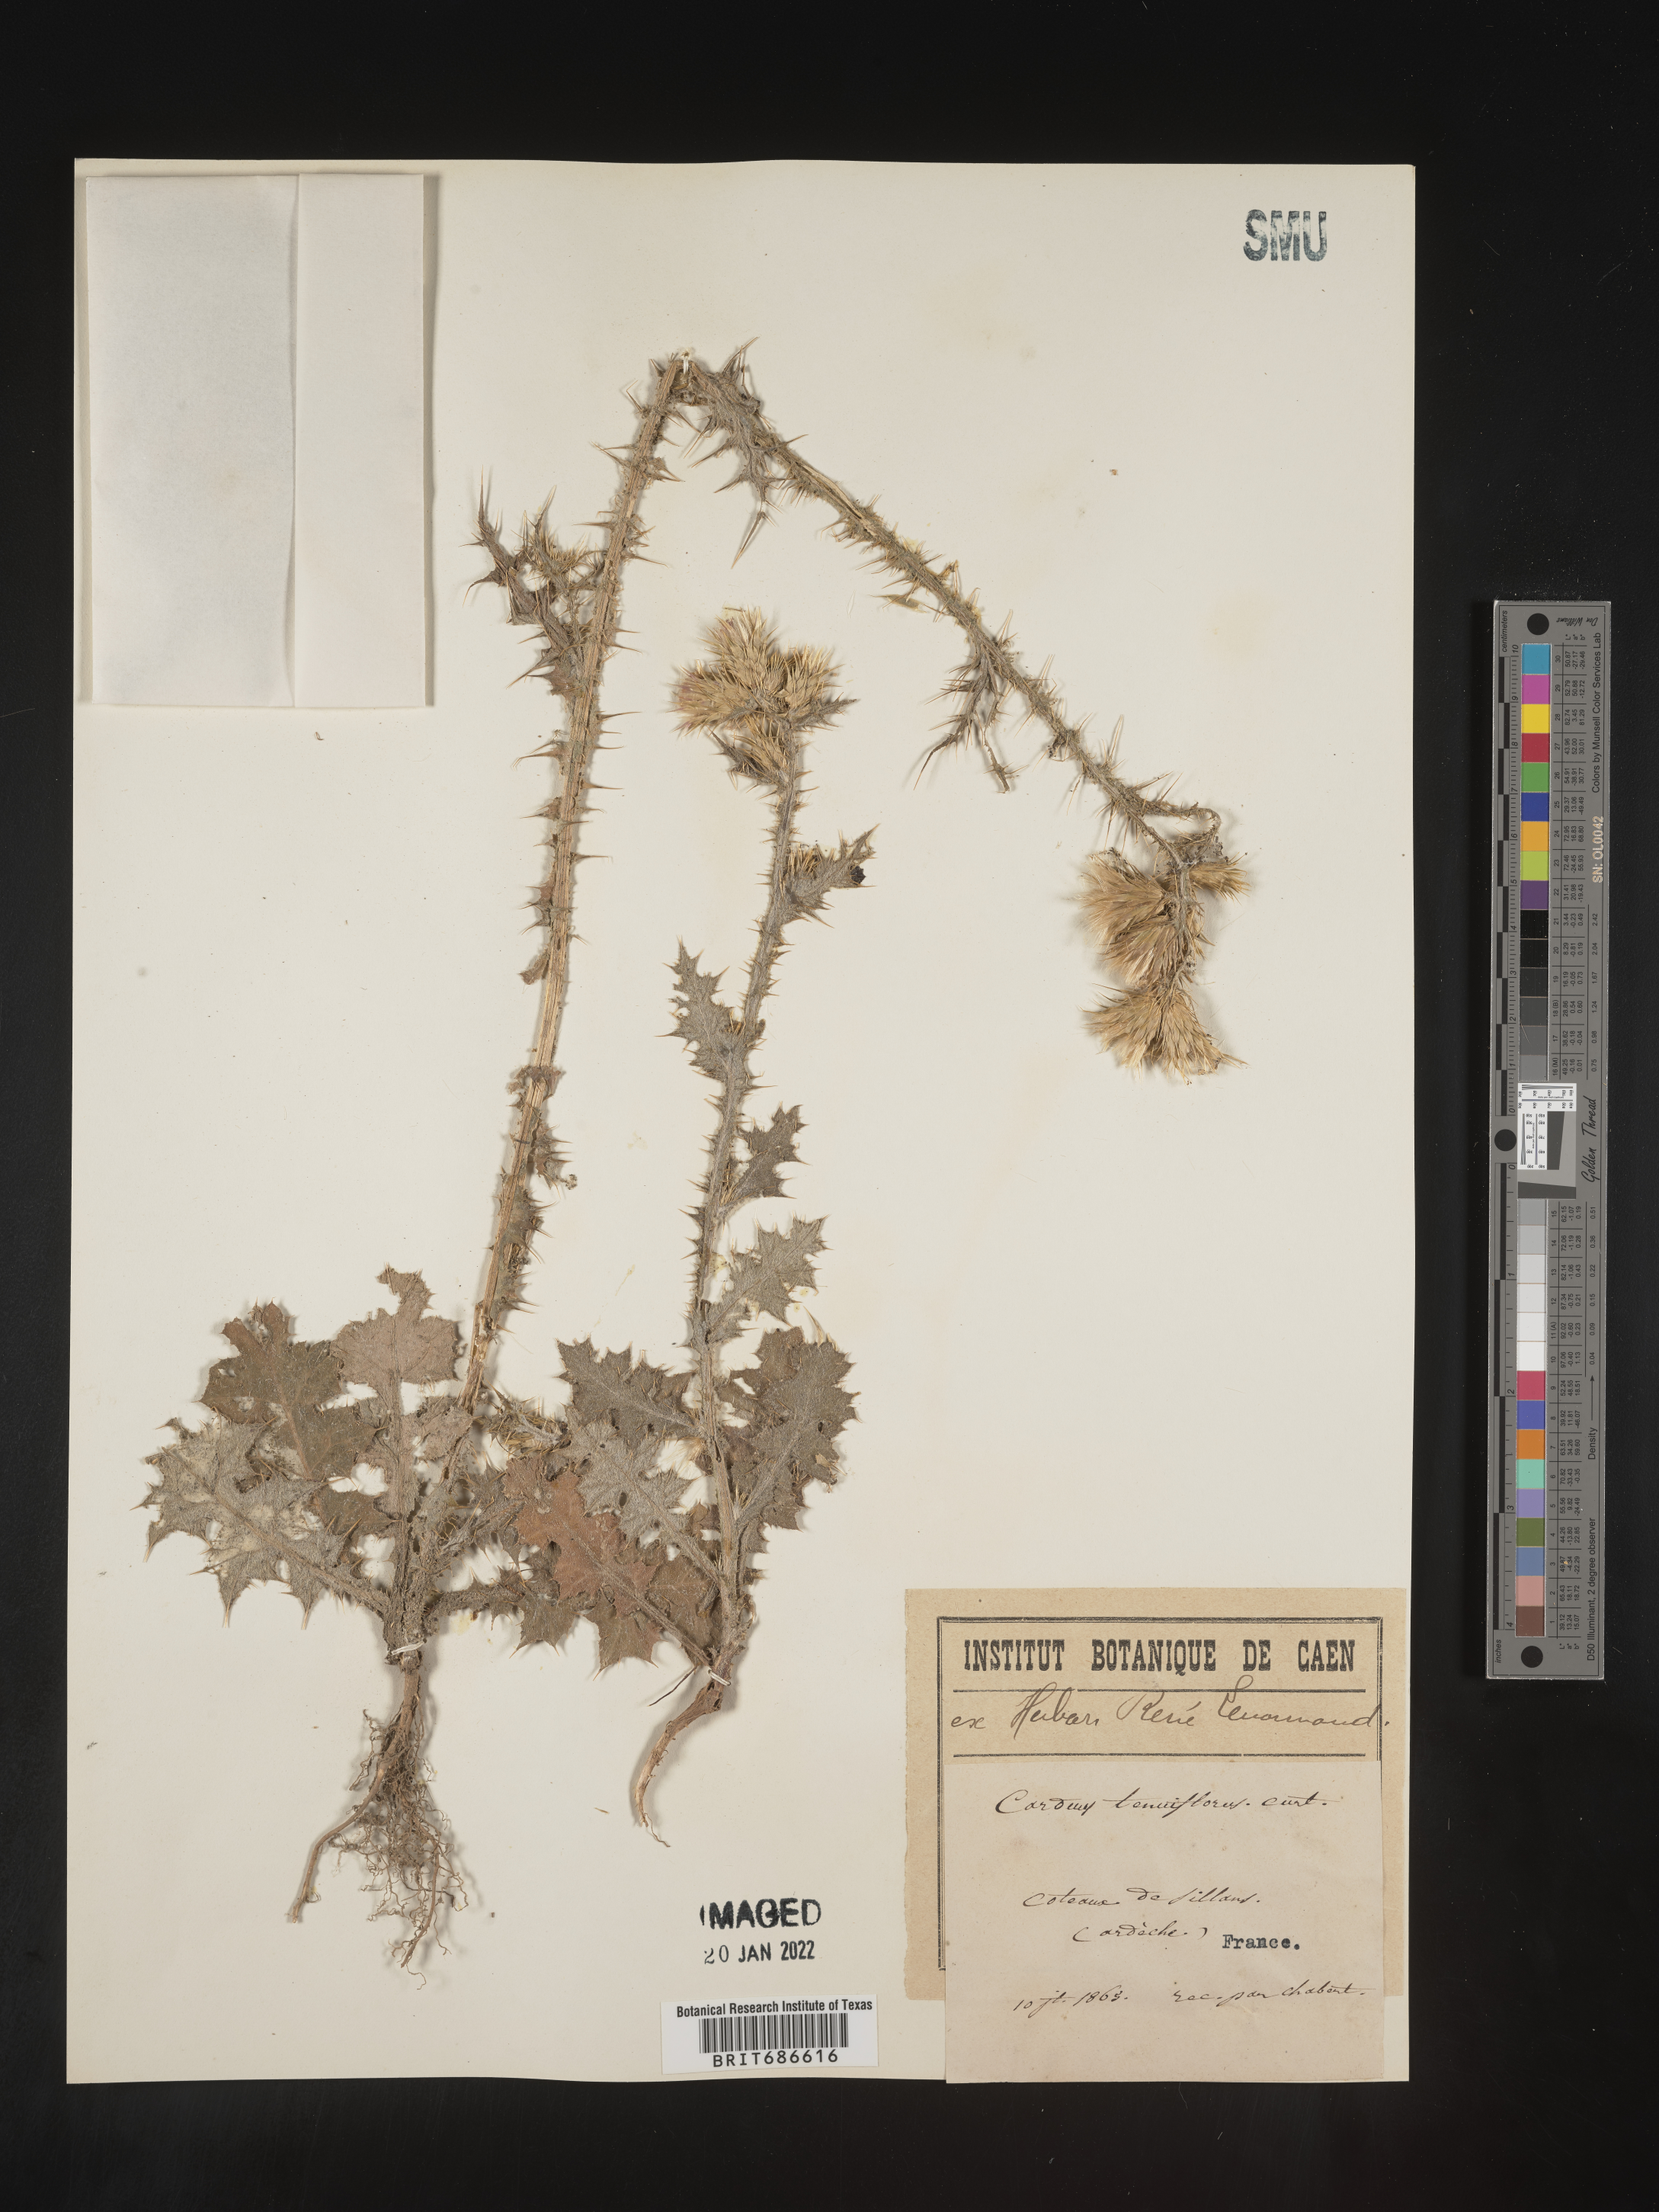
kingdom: Plantae
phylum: Tracheophyta
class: Magnoliopsida
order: Asterales
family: Asteraceae
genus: Carduus
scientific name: Carduus
